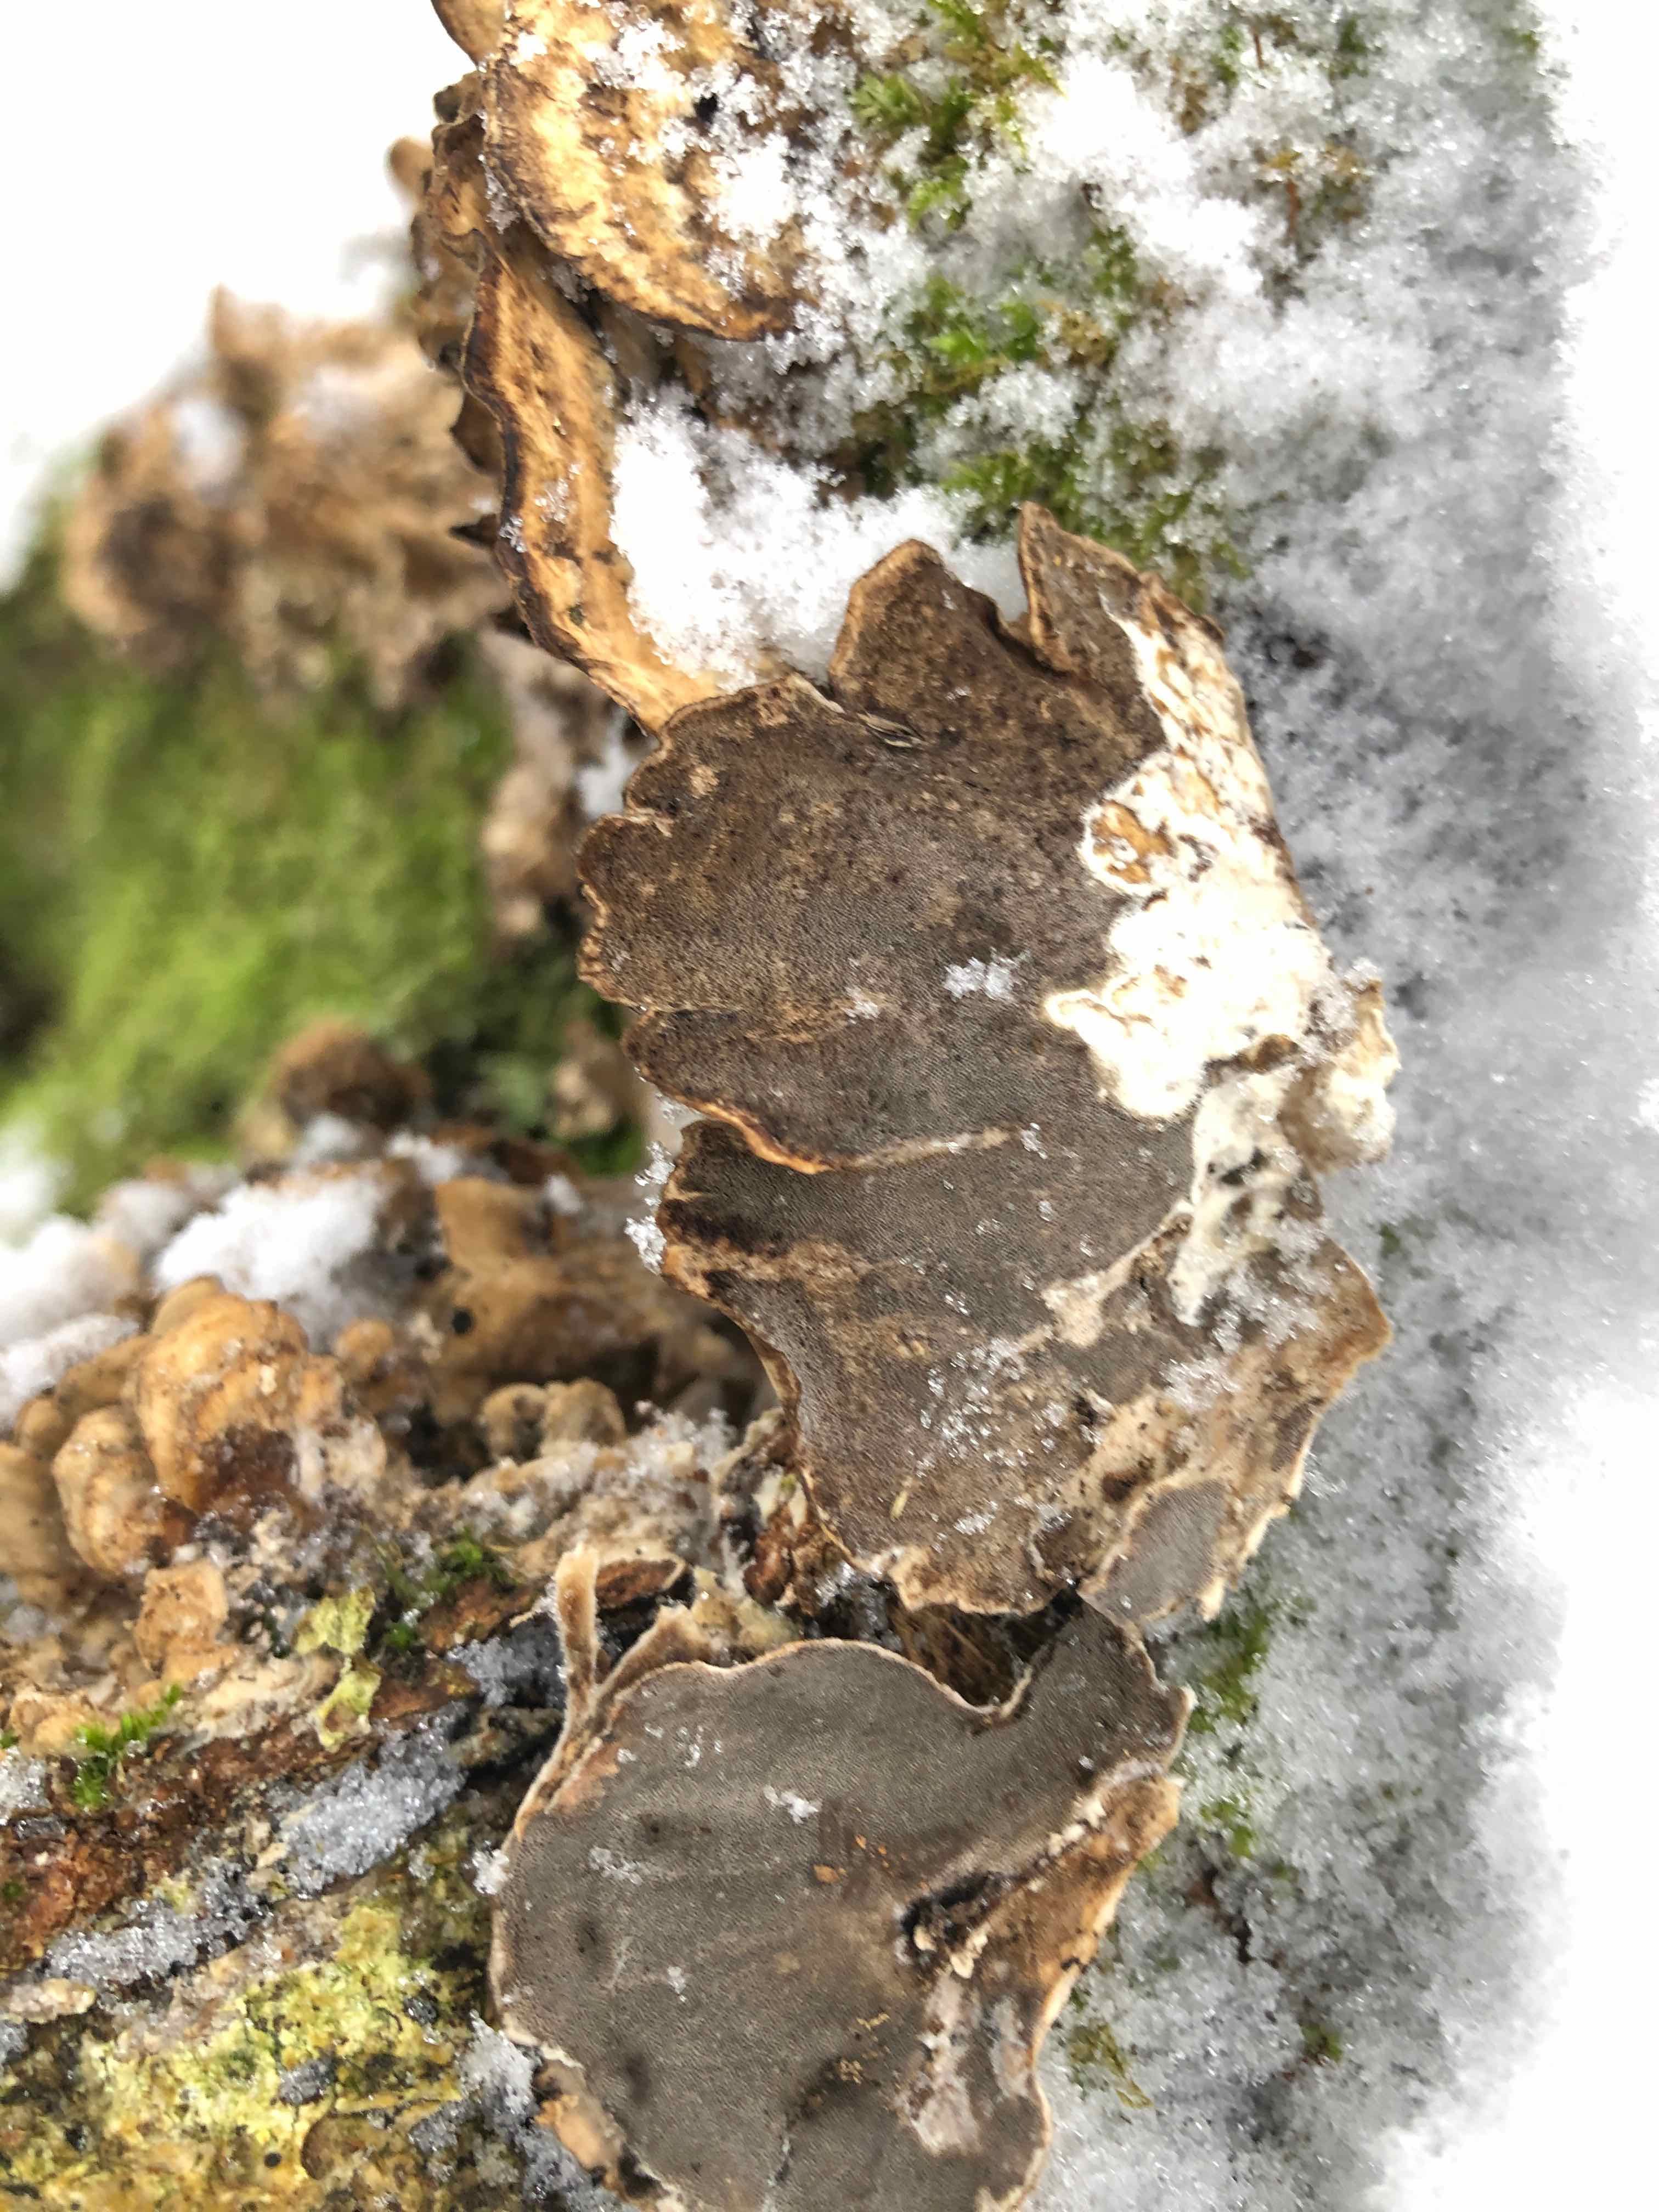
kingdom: Fungi
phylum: Basidiomycota
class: Agaricomycetes
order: Polyporales
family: Phanerochaetaceae
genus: Bjerkandera
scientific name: Bjerkandera adusta
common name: sveden sodporesvamp
